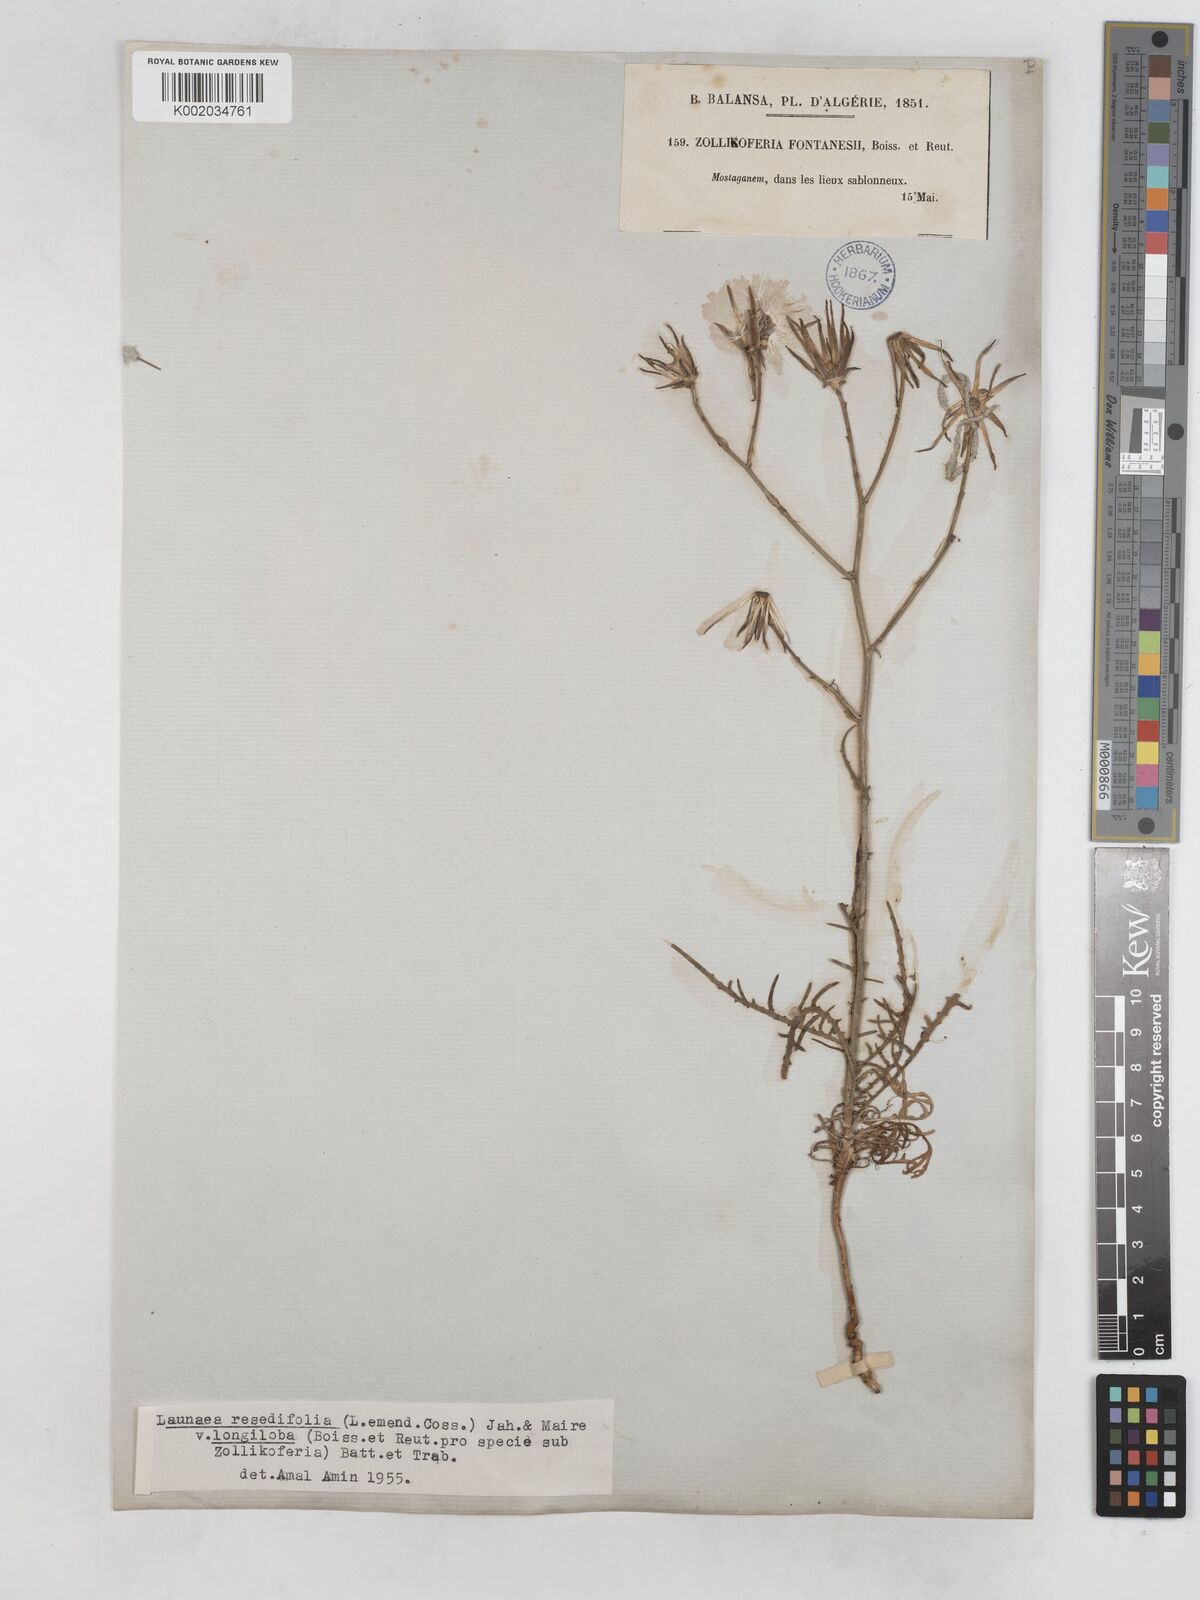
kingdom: Plantae
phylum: Tracheophyta
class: Magnoliopsida
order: Asterales
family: Asteraceae
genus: Launaea
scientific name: Launaea
